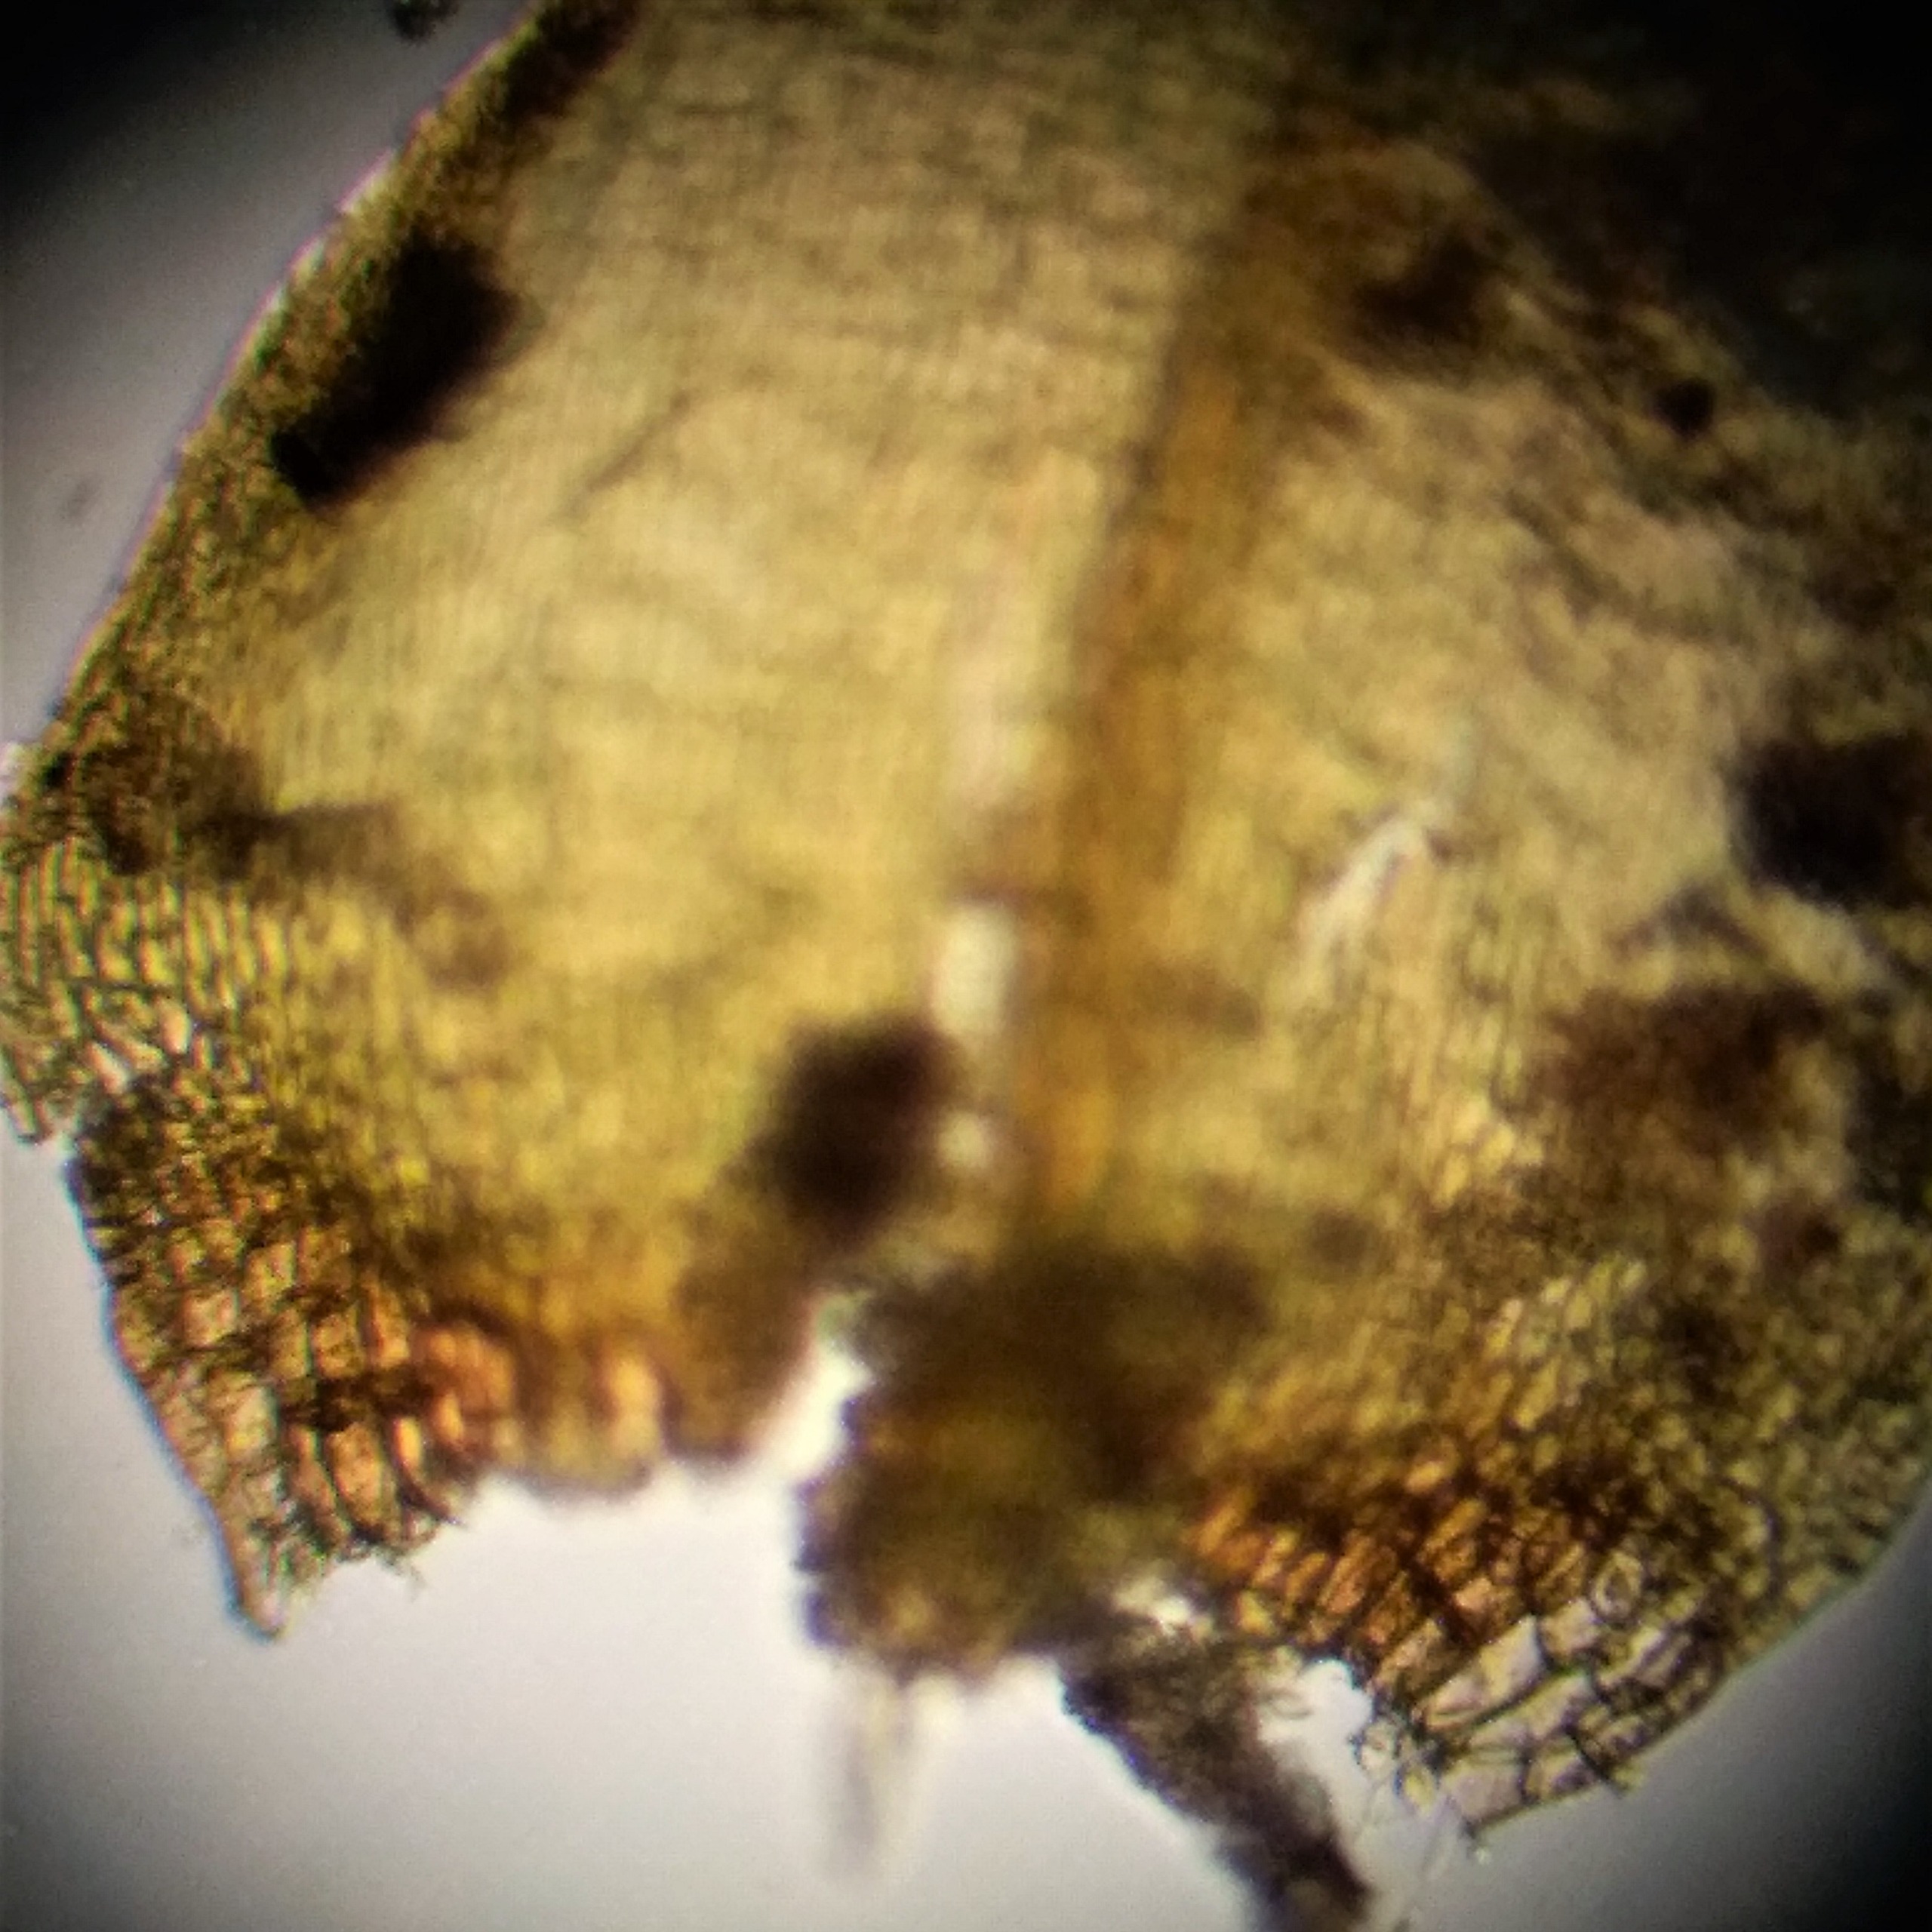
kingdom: Plantae
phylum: Bryophyta
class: Bryopsida
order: Hypnales
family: Amblystegiaceae
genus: Drepanocladus
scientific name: Drepanocladus aduncus
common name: Kær-seglmos
